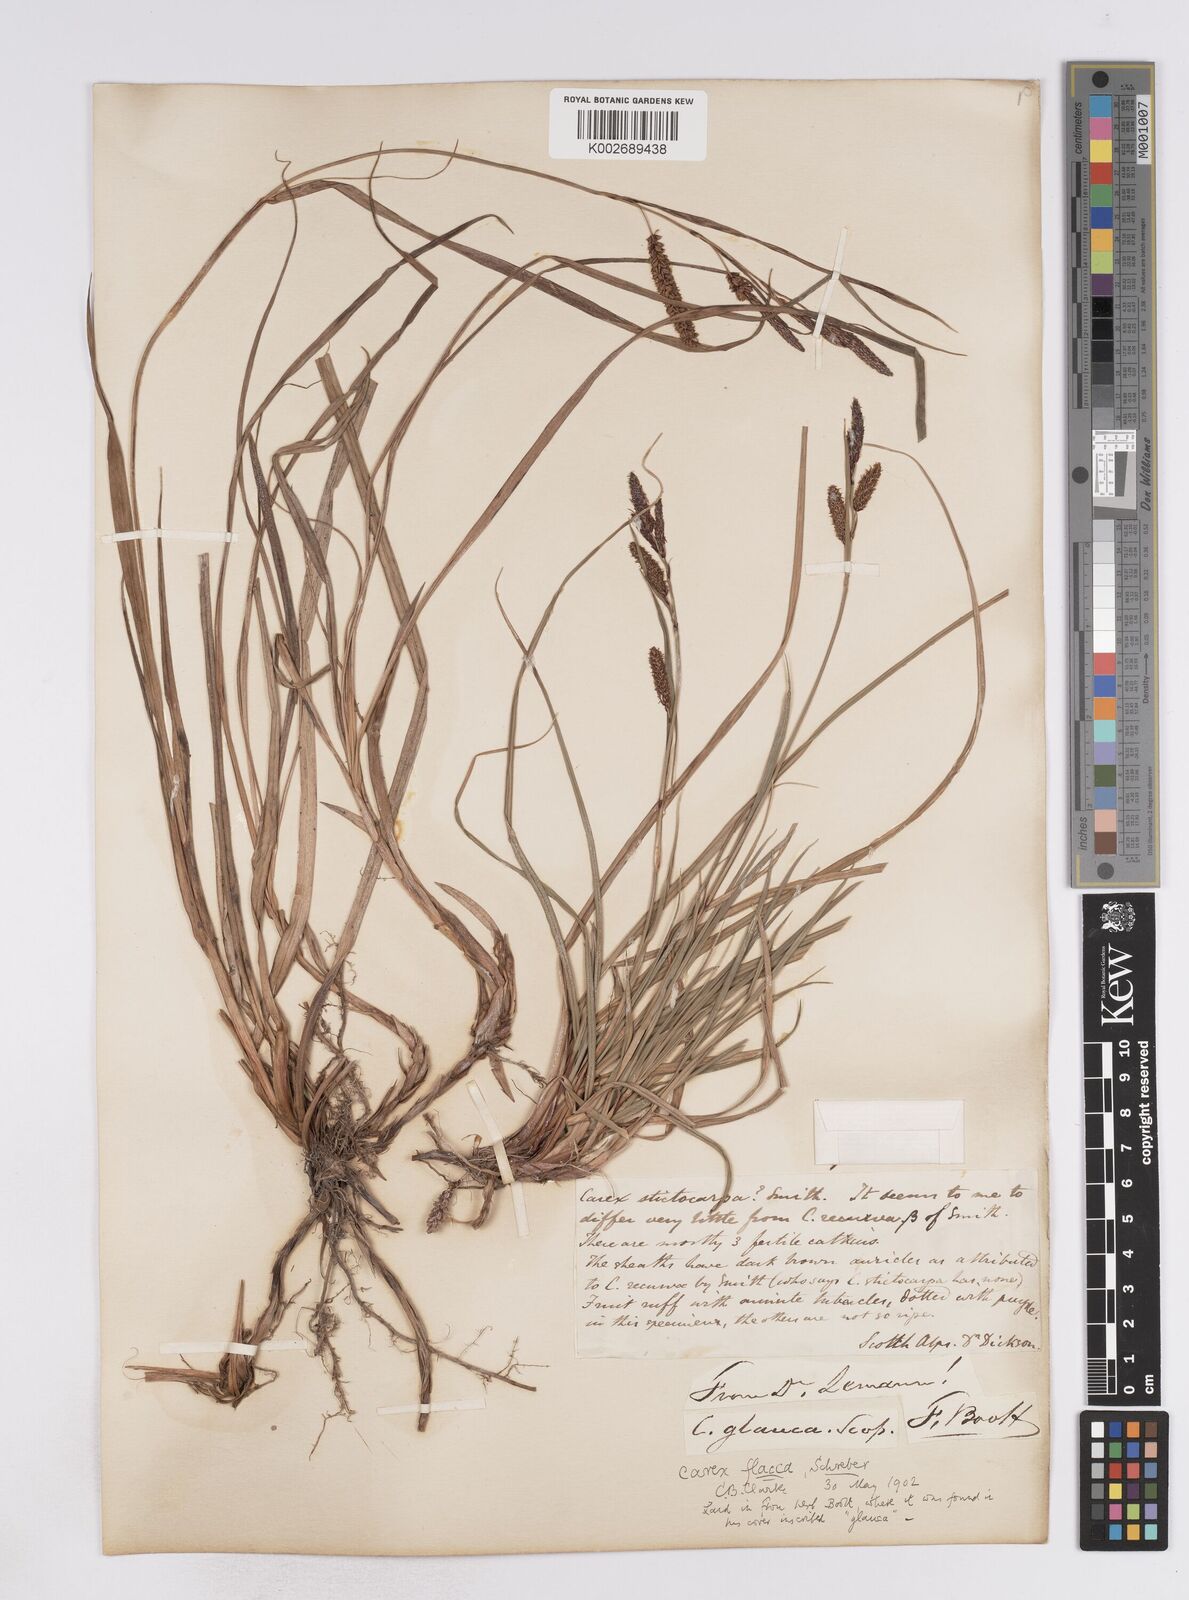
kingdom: Plantae
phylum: Tracheophyta
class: Liliopsida
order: Poales
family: Cyperaceae
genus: Carex
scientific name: Carex flacca
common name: Glaucous sedge
